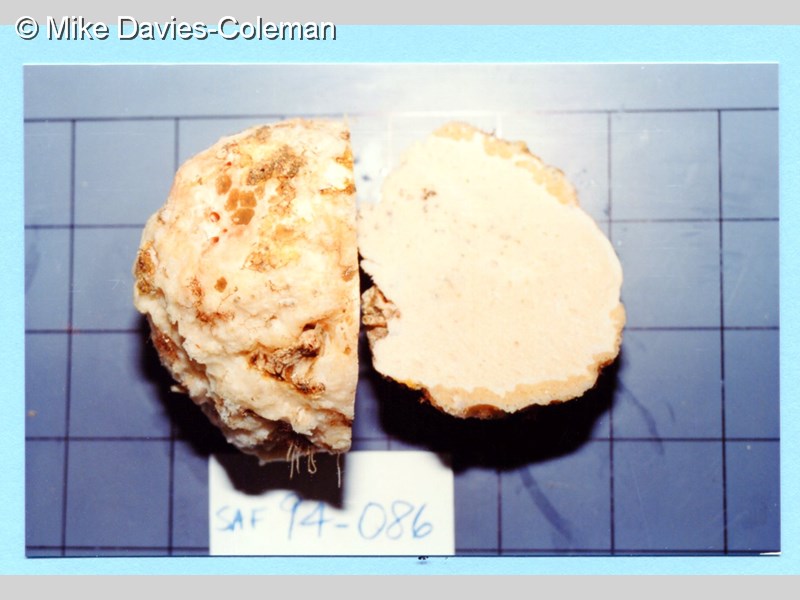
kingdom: Animalia
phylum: Porifera
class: Demospongiae
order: Tetractinellida
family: Ancorinidae
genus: Asteropus
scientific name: Asteropus
